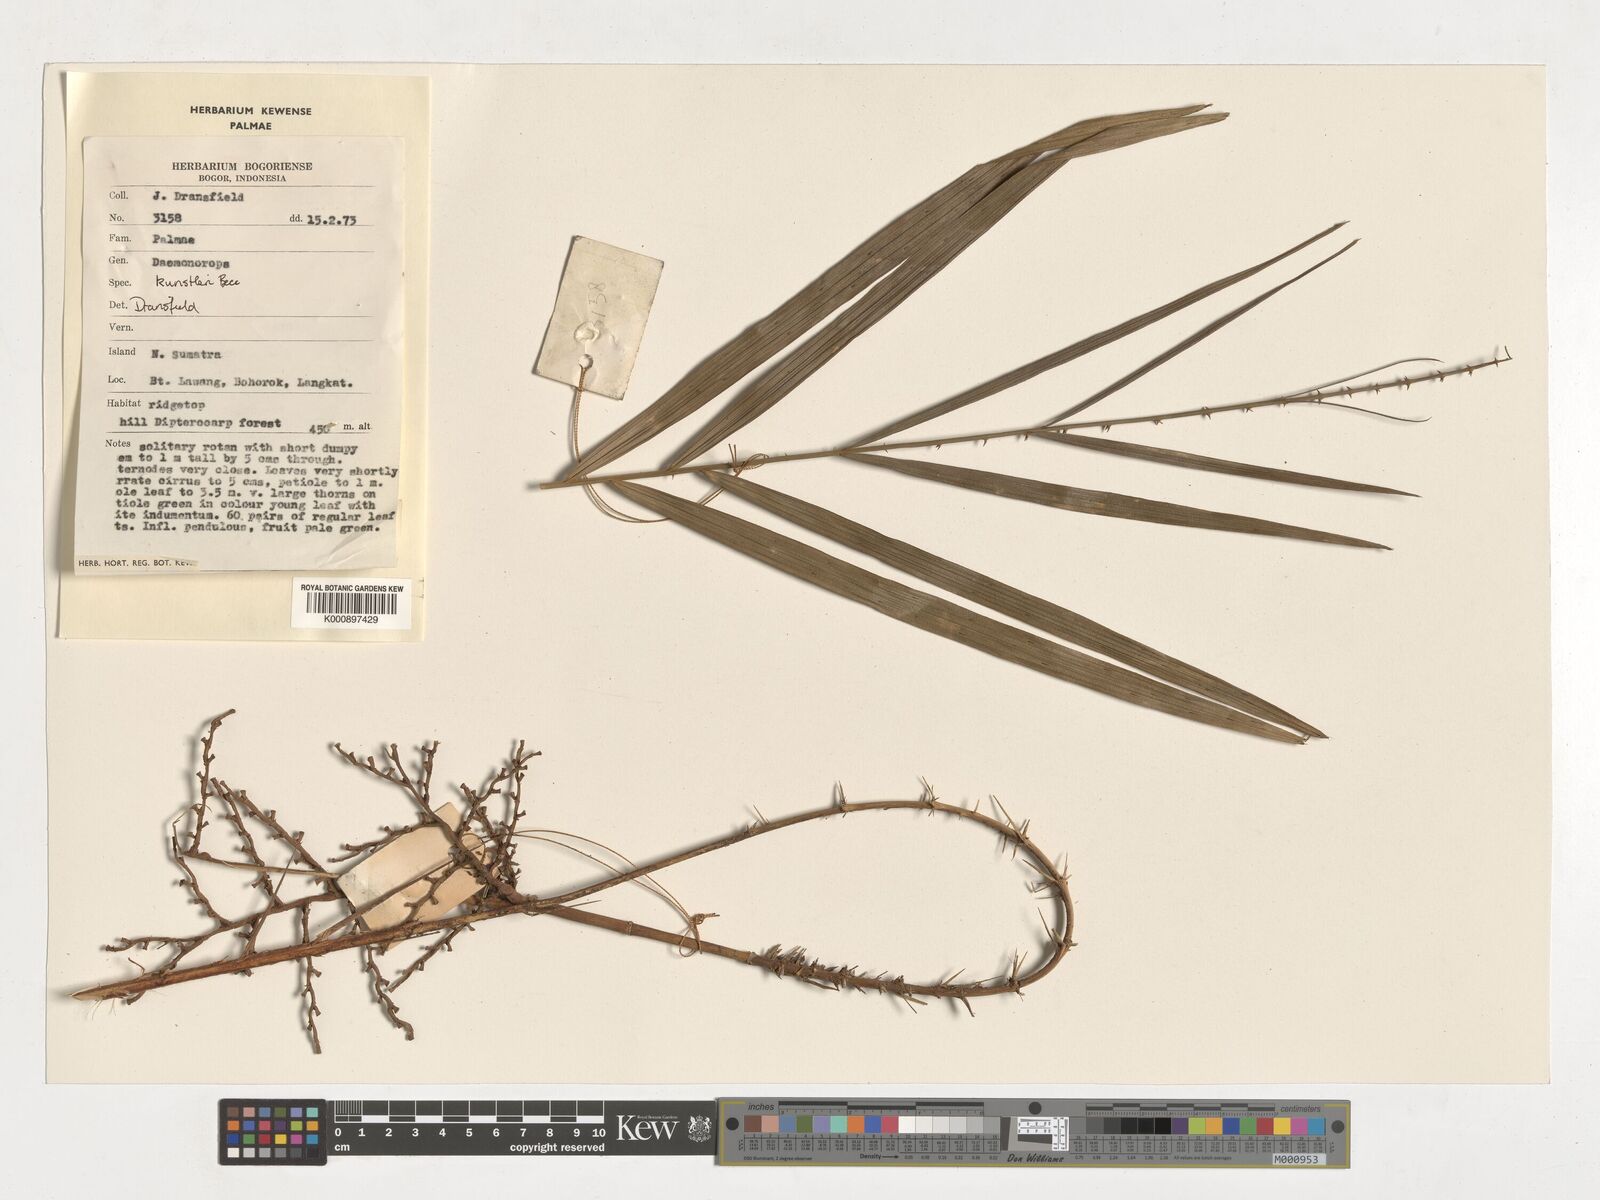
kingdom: Plantae
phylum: Tracheophyta
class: Liliopsida
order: Arecales
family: Arecaceae
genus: Calamus
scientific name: Calamus kunstleri
